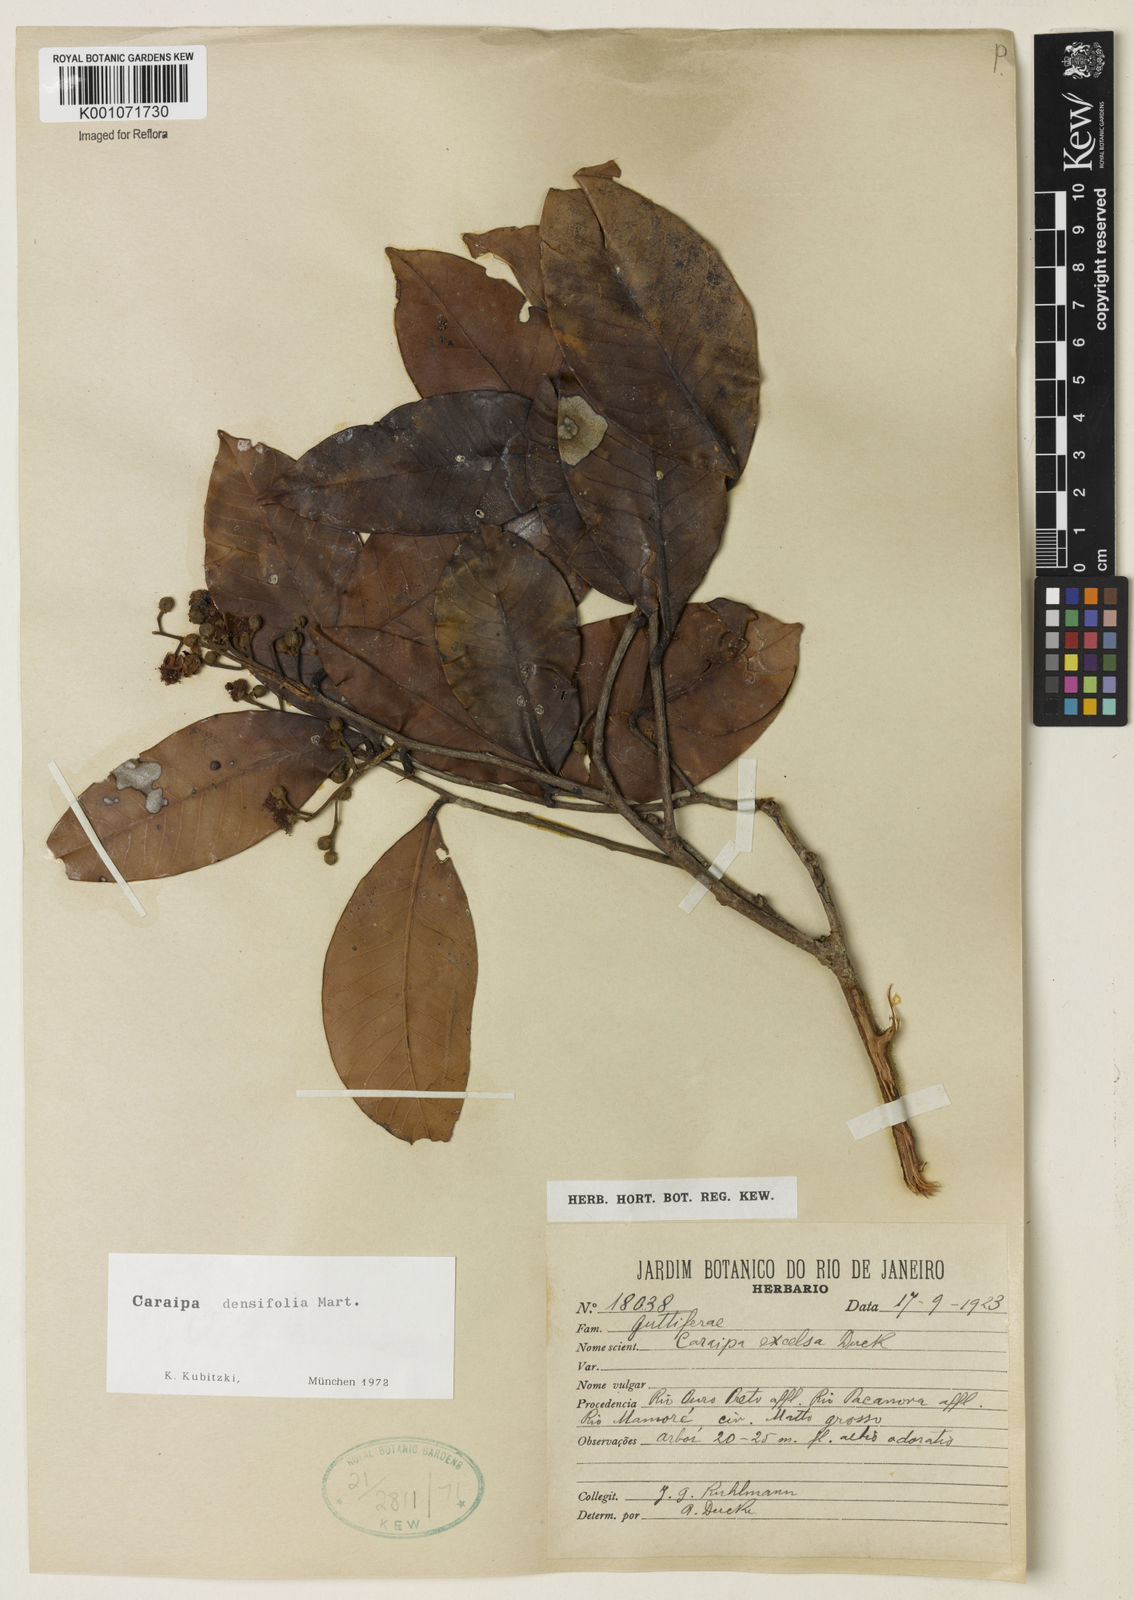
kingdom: Plantae
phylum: Tracheophyta
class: Magnoliopsida
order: Malpighiales
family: Calophyllaceae
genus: Caraipa
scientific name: Caraipa densifolia
